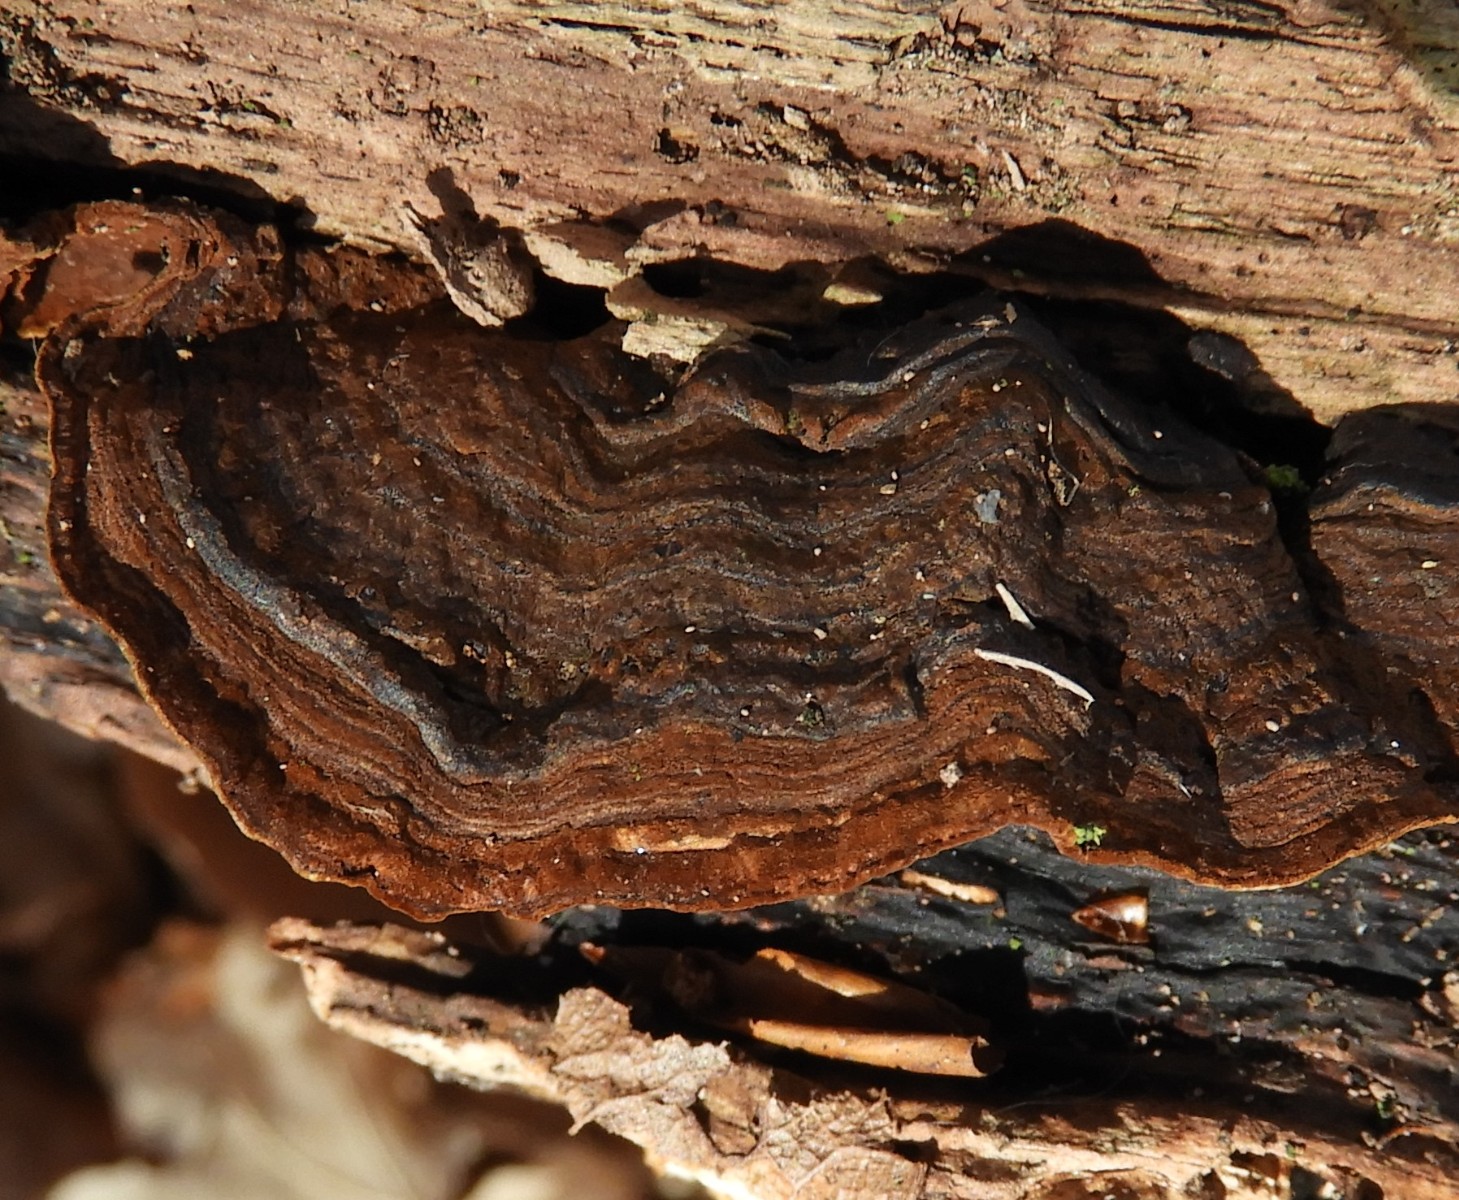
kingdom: Fungi
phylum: Basidiomycota
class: Agaricomycetes
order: Hymenochaetales
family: Hymenochaetaceae
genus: Hymenochaete
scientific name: Hymenochaete rubiginosa
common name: stiv ruslædersvamp
